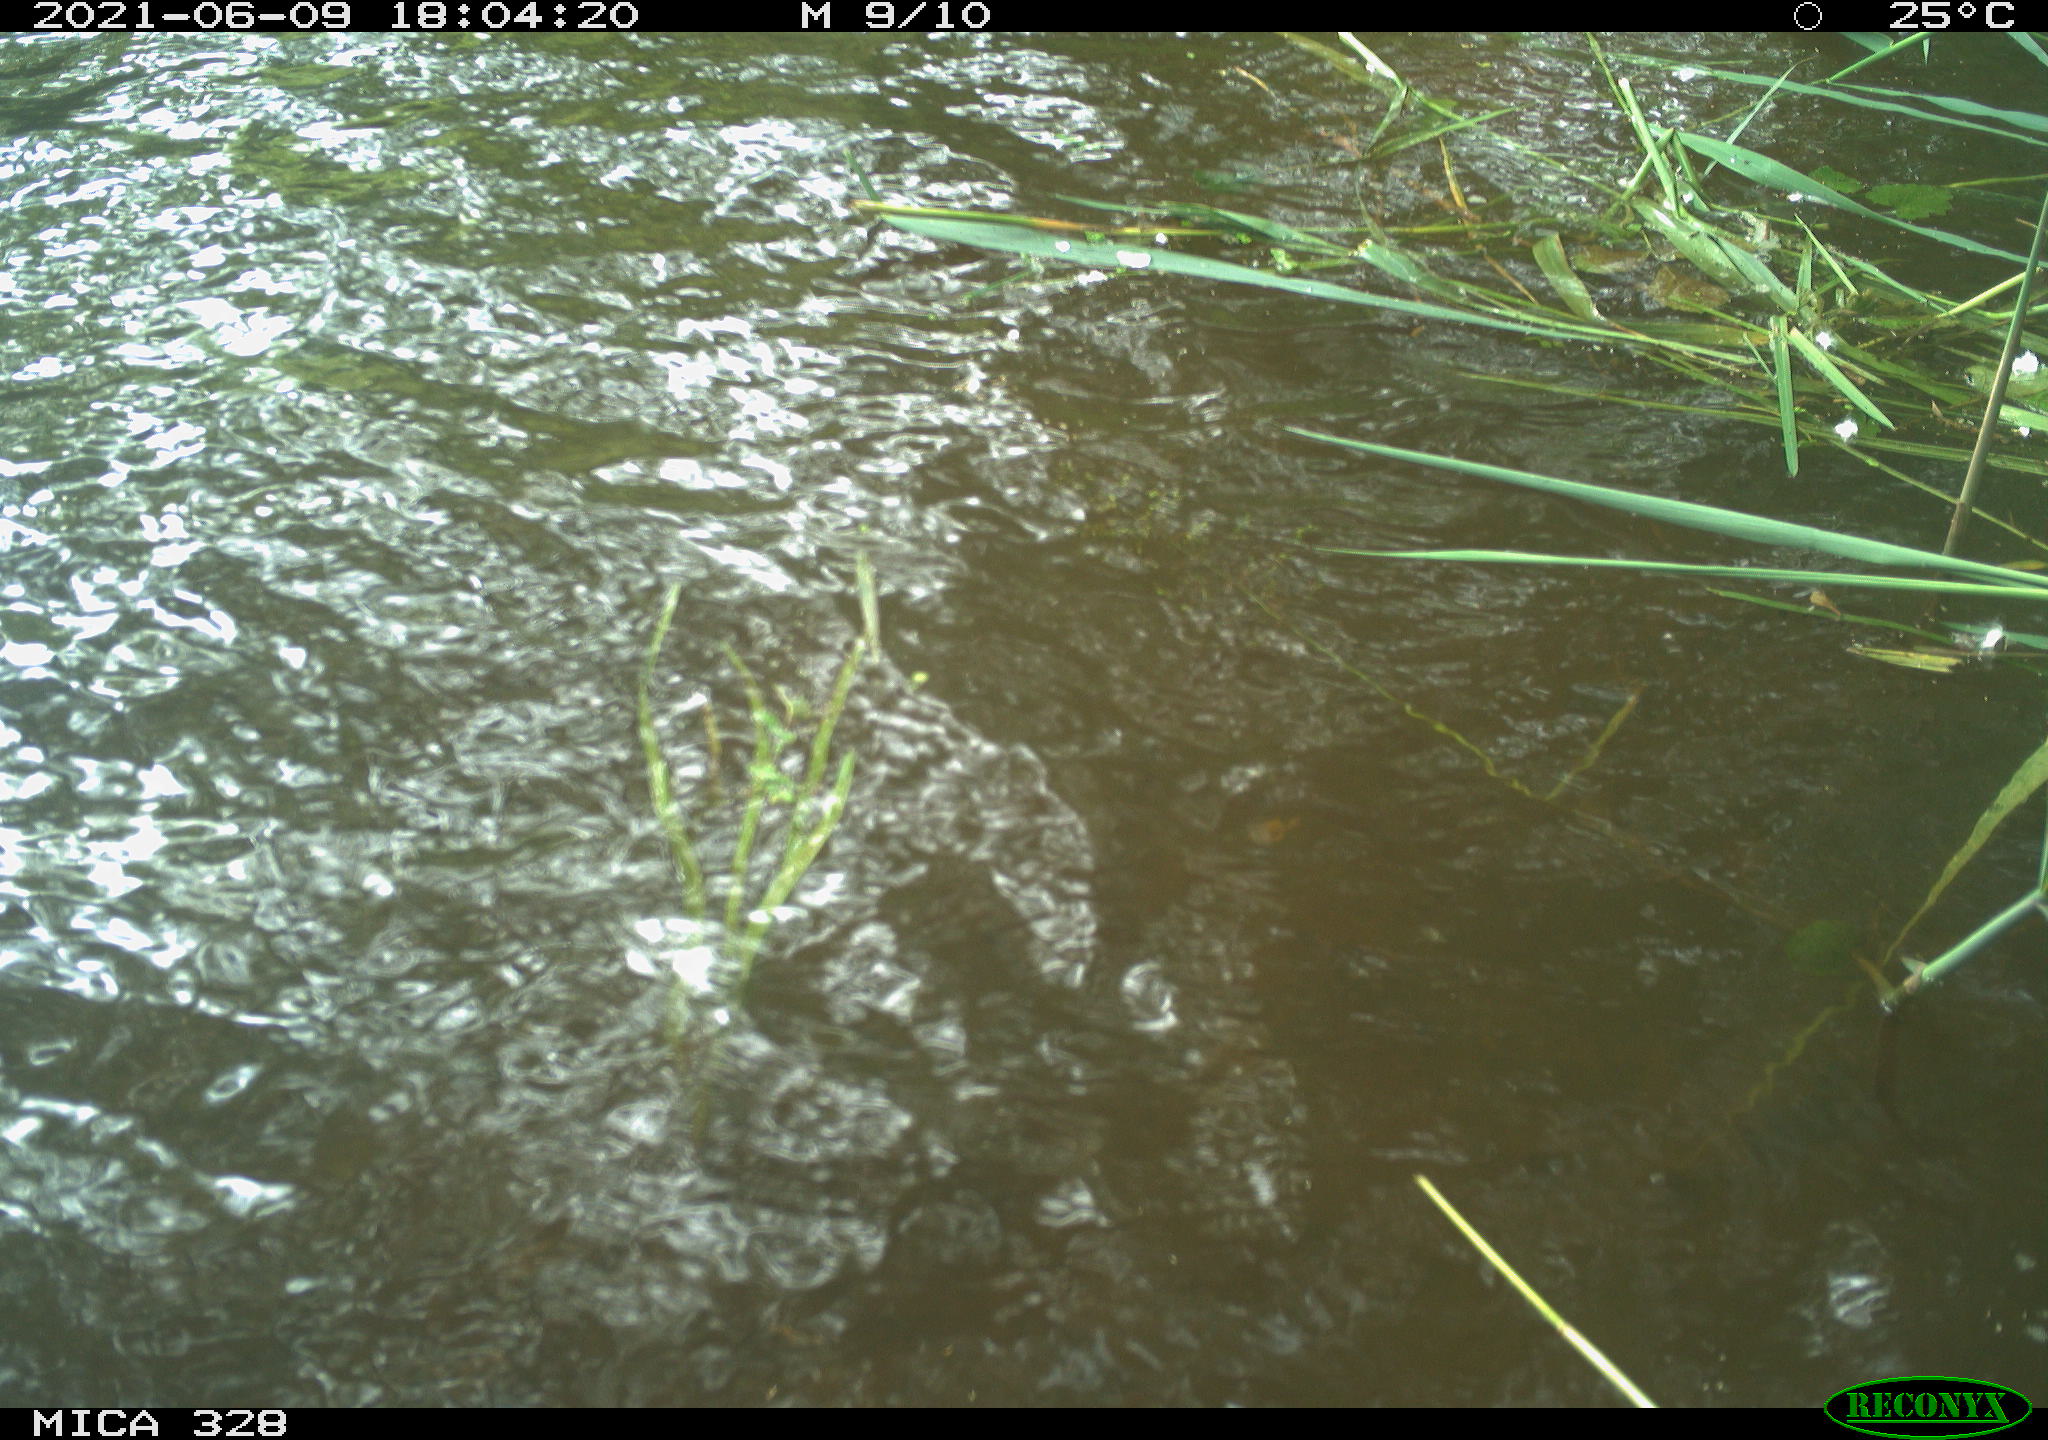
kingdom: Animalia
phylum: Chordata
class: Aves
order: Anseriformes
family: Anatidae
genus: Aix
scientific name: Aix galericulata
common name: Mandarin duck
